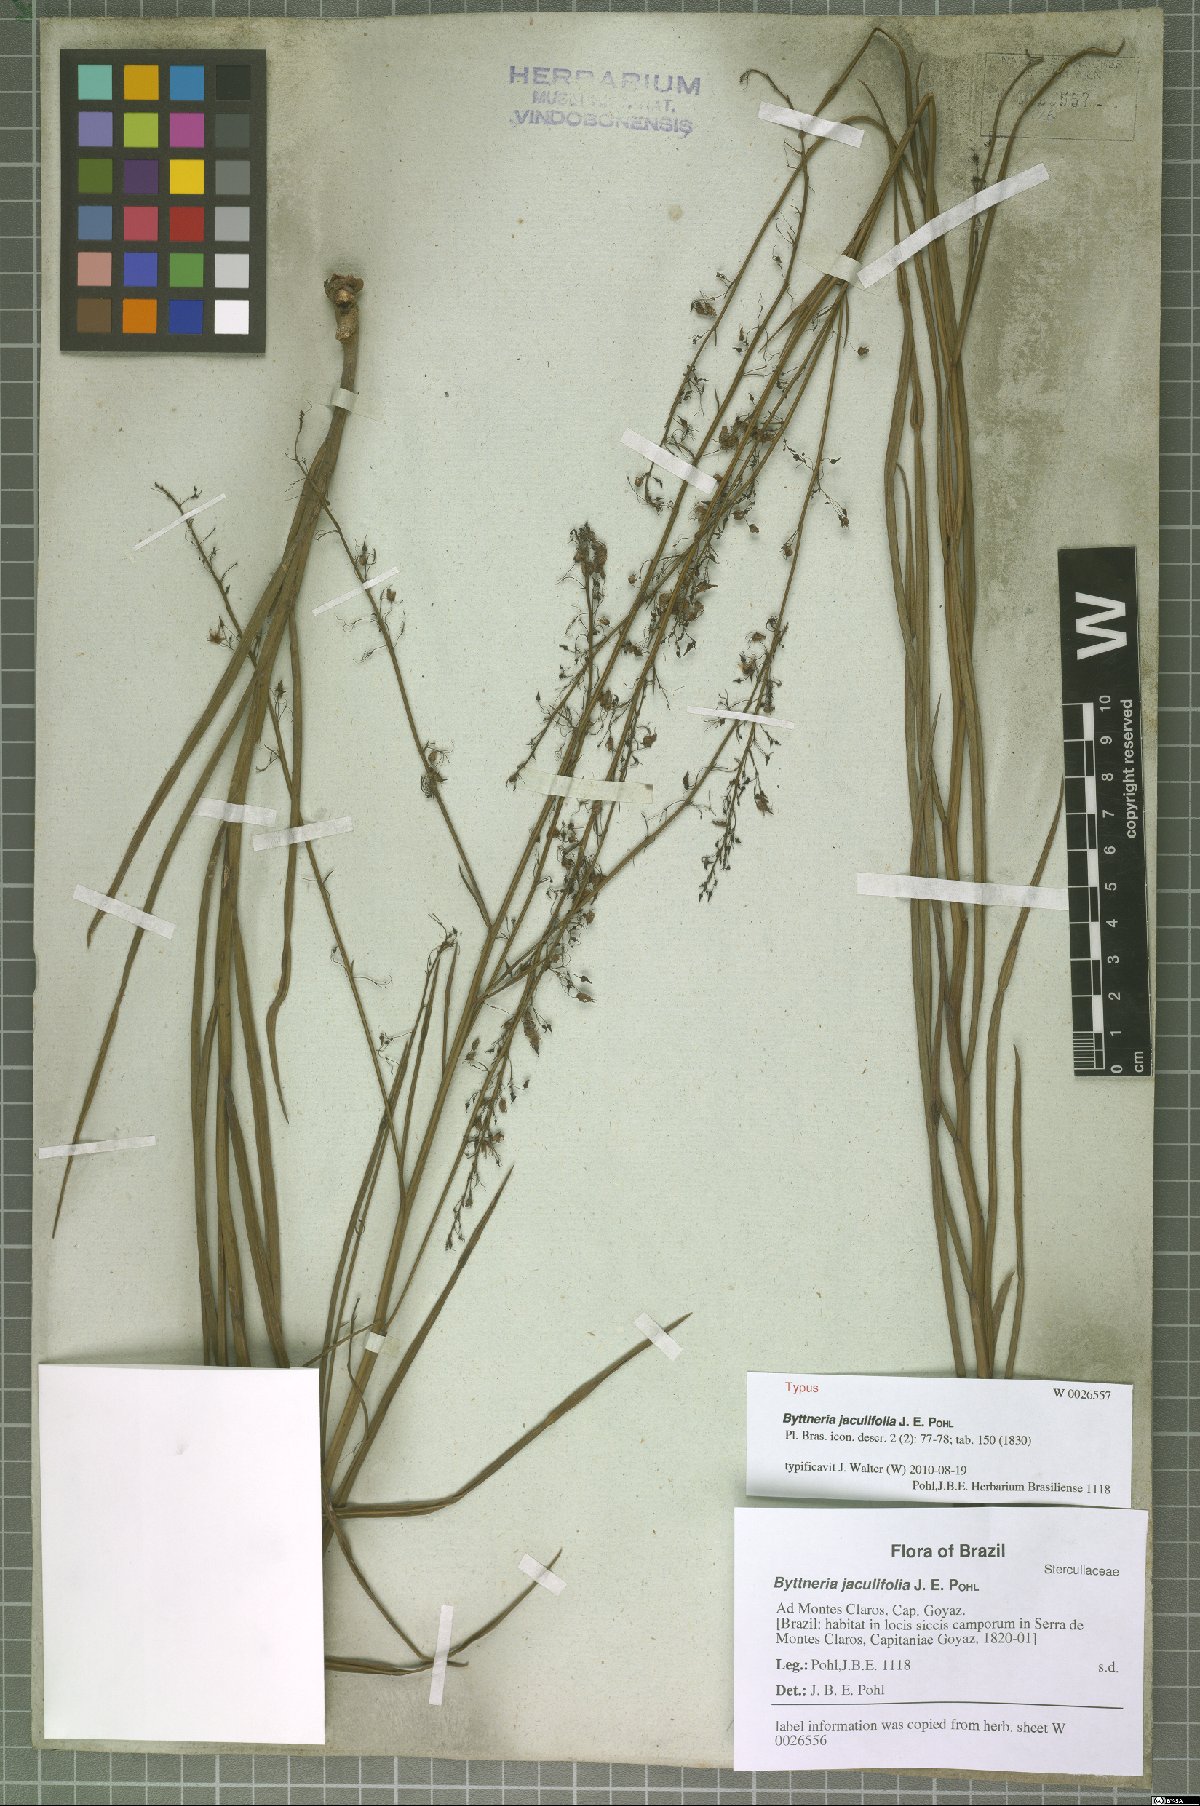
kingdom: Plantae
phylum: Tracheophyta
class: Magnoliopsida
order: Malvales
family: Malvaceae
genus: Byttneria
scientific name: Byttneria jaculifolia
